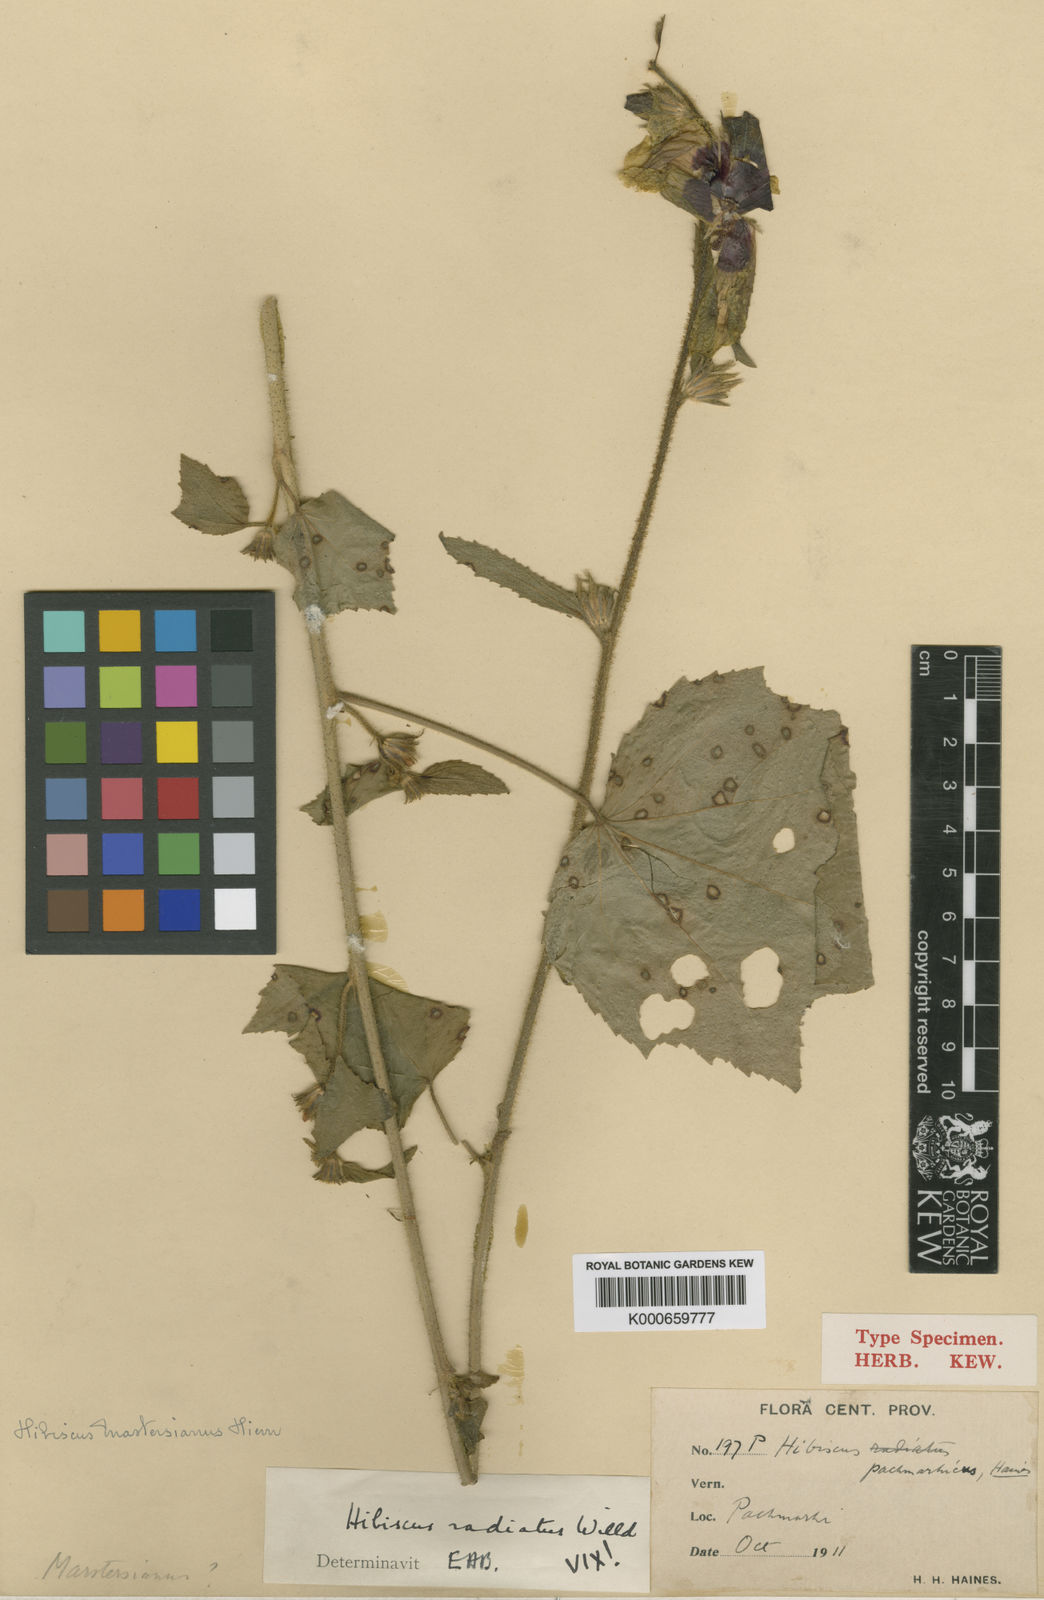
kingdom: Plantae
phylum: Tracheophyta
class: Magnoliopsida
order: Malvales
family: Malvaceae
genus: Hibiscus
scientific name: Hibiscus mastersianus
